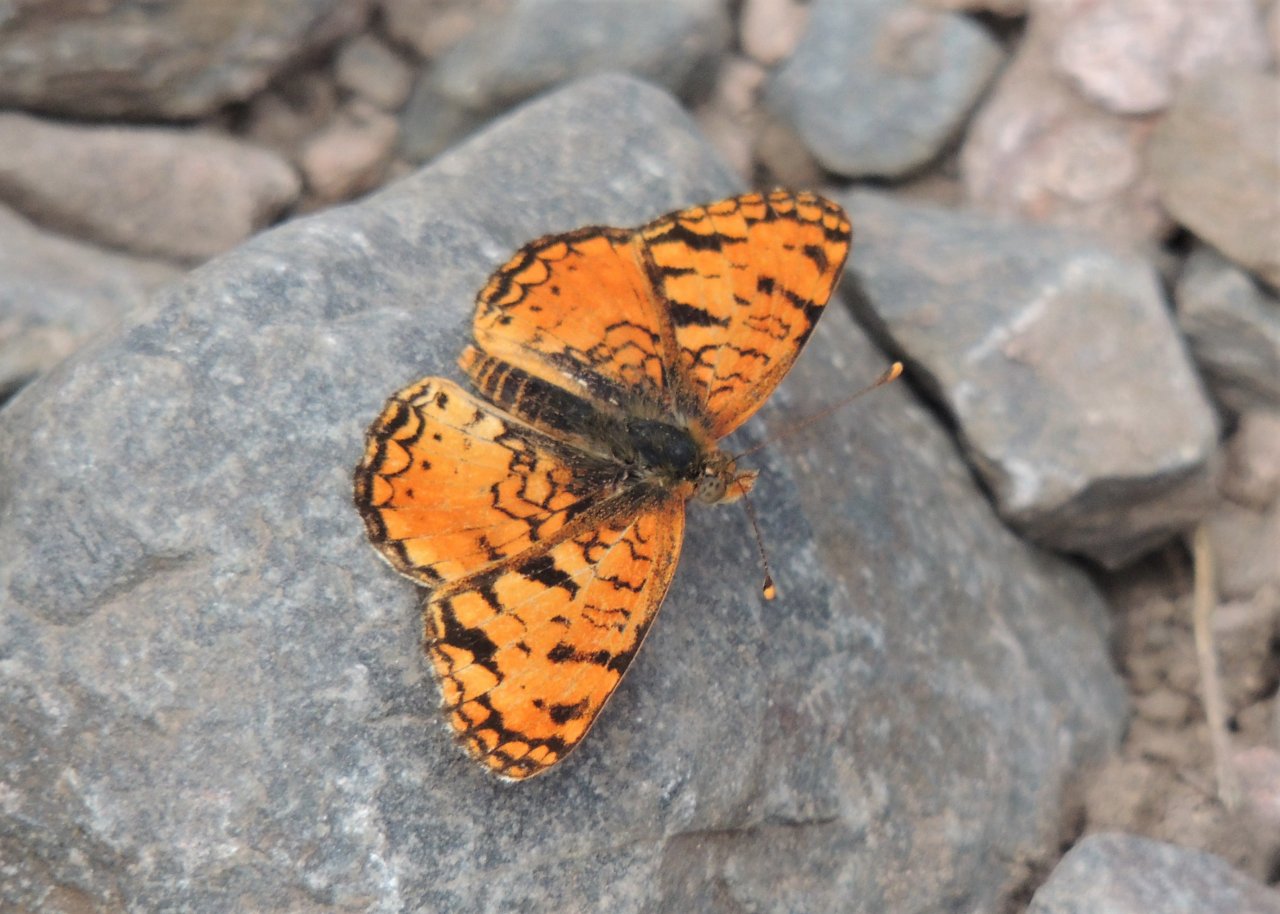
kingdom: Animalia
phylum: Arthropoda
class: Insecta
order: Lepidoptera
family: Nymphalidae
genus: Phyciodes
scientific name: Phyciodes pallida
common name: Pale Crescent
